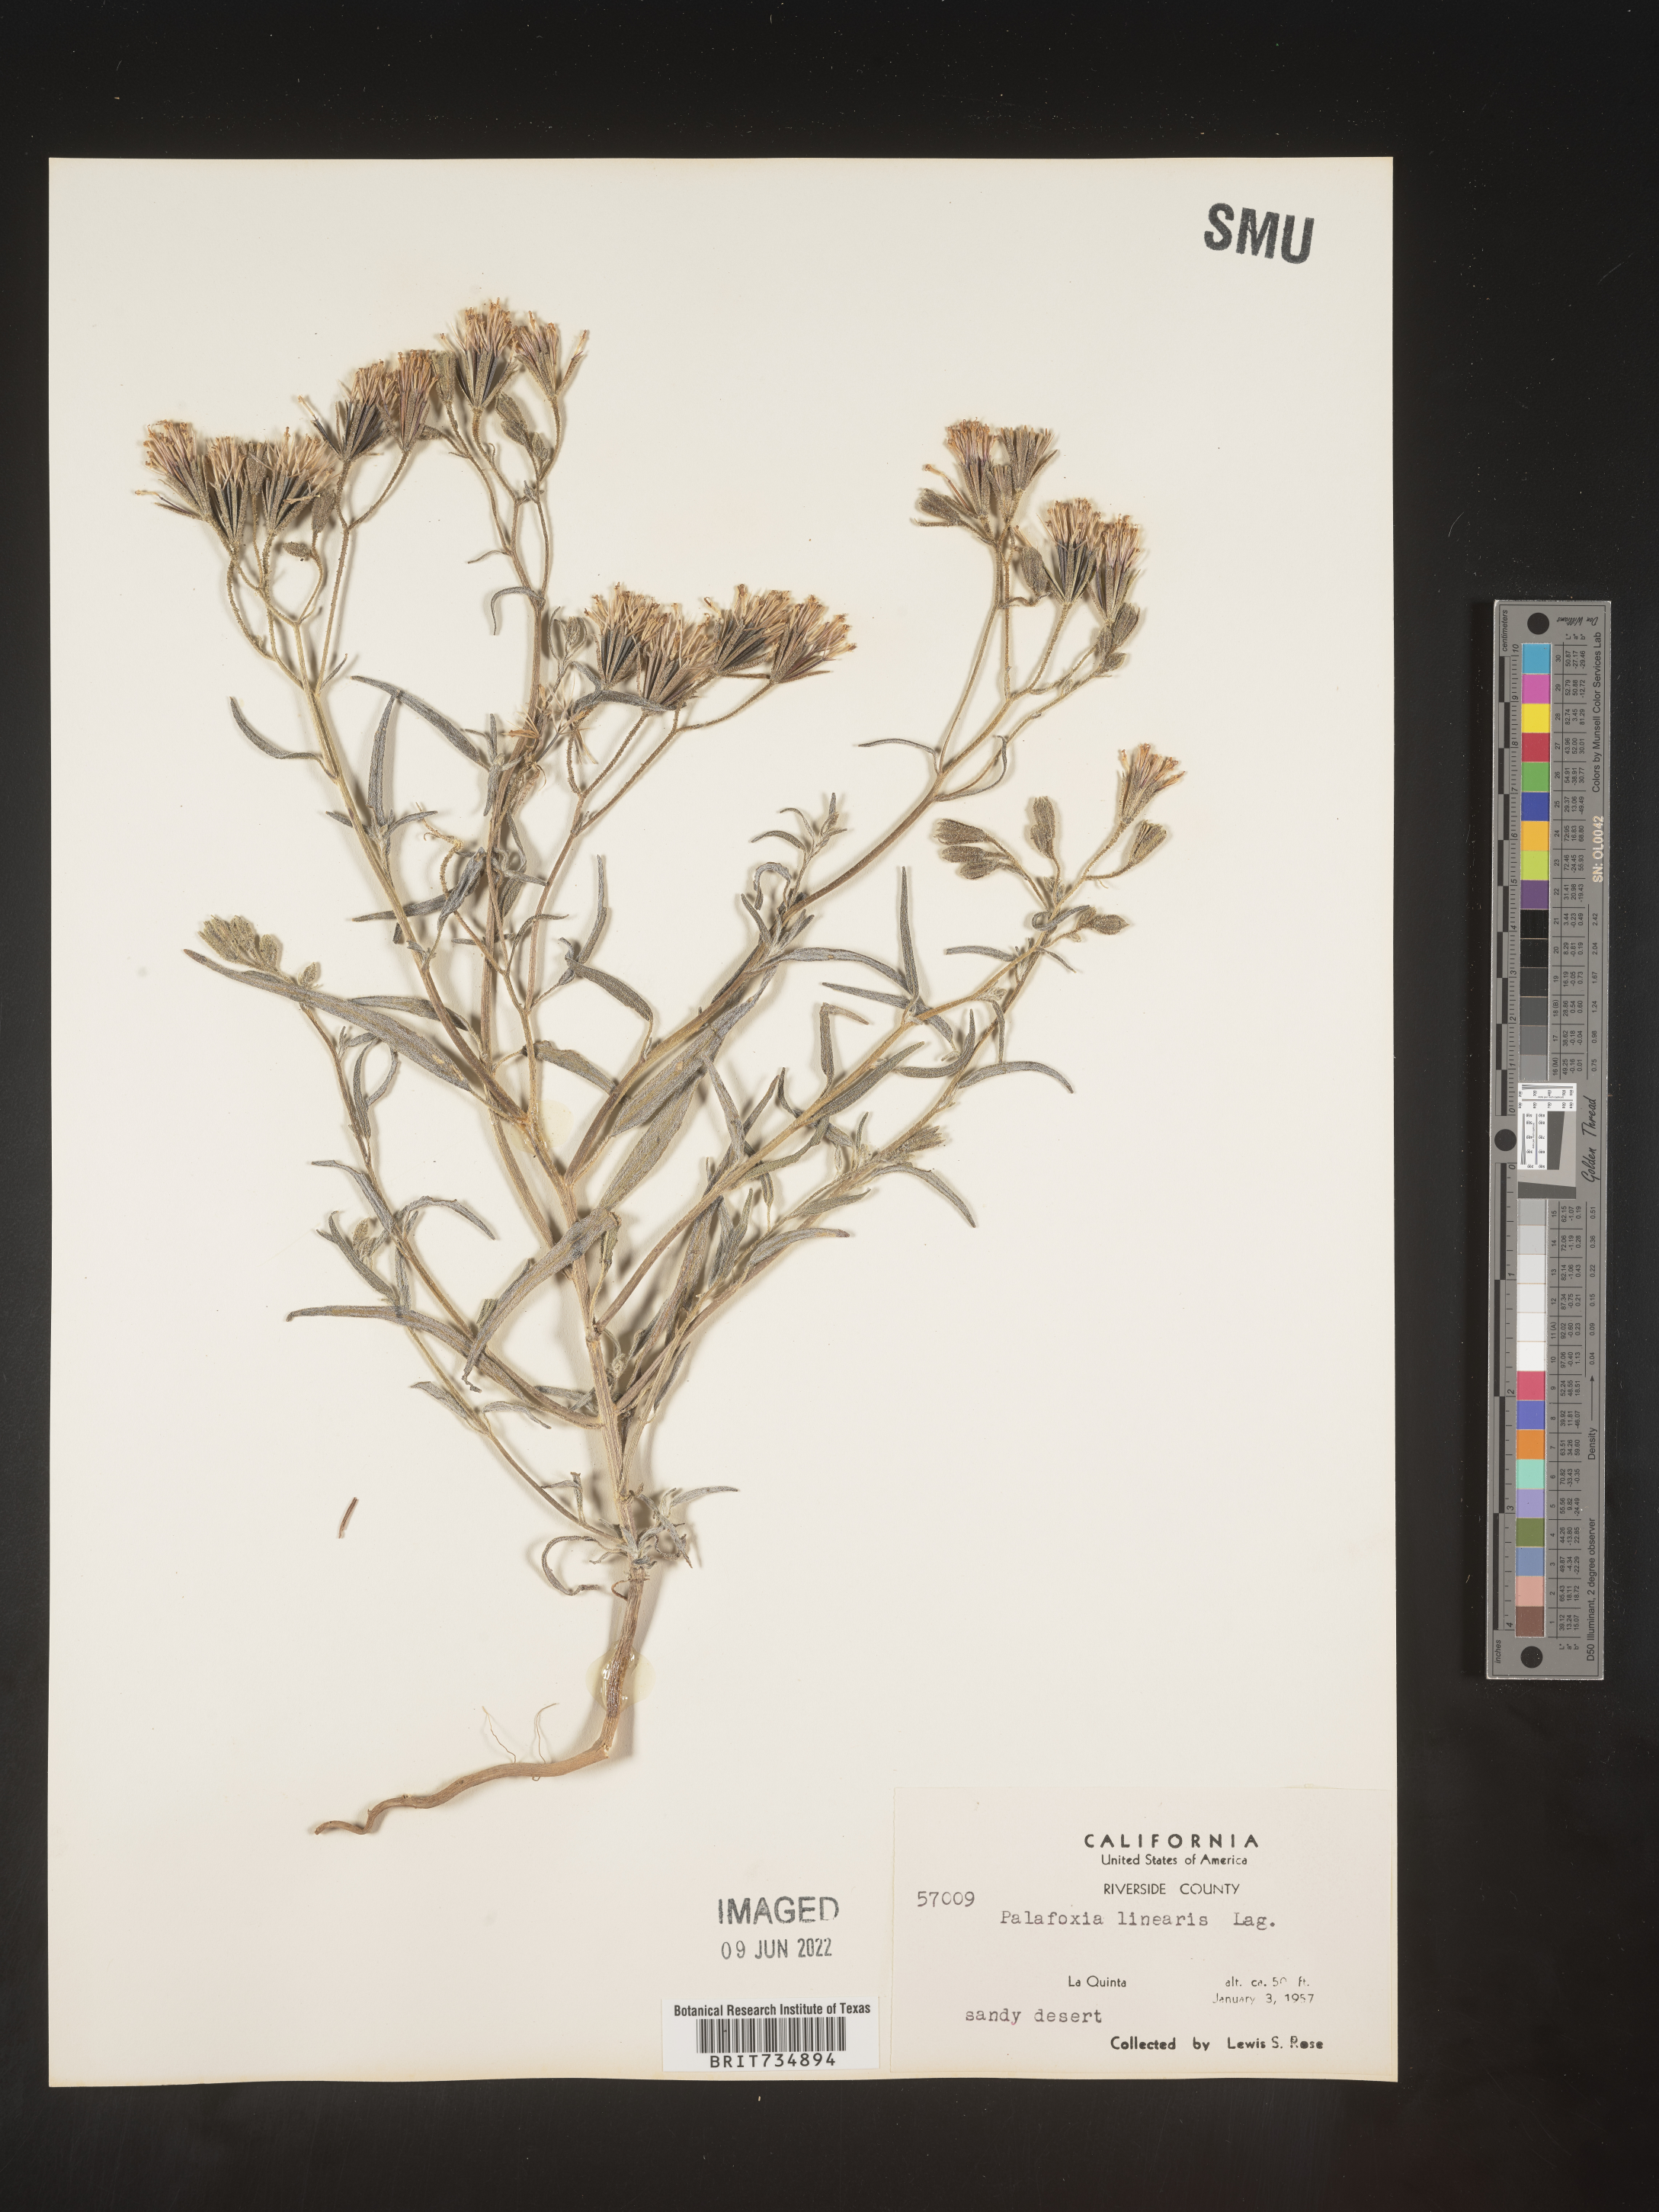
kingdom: Plantae
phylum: Tracheophyta
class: Magnoliopsida
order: Asterales
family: Asteraceae
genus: Palafoxia
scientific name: Palafoxia linearis
